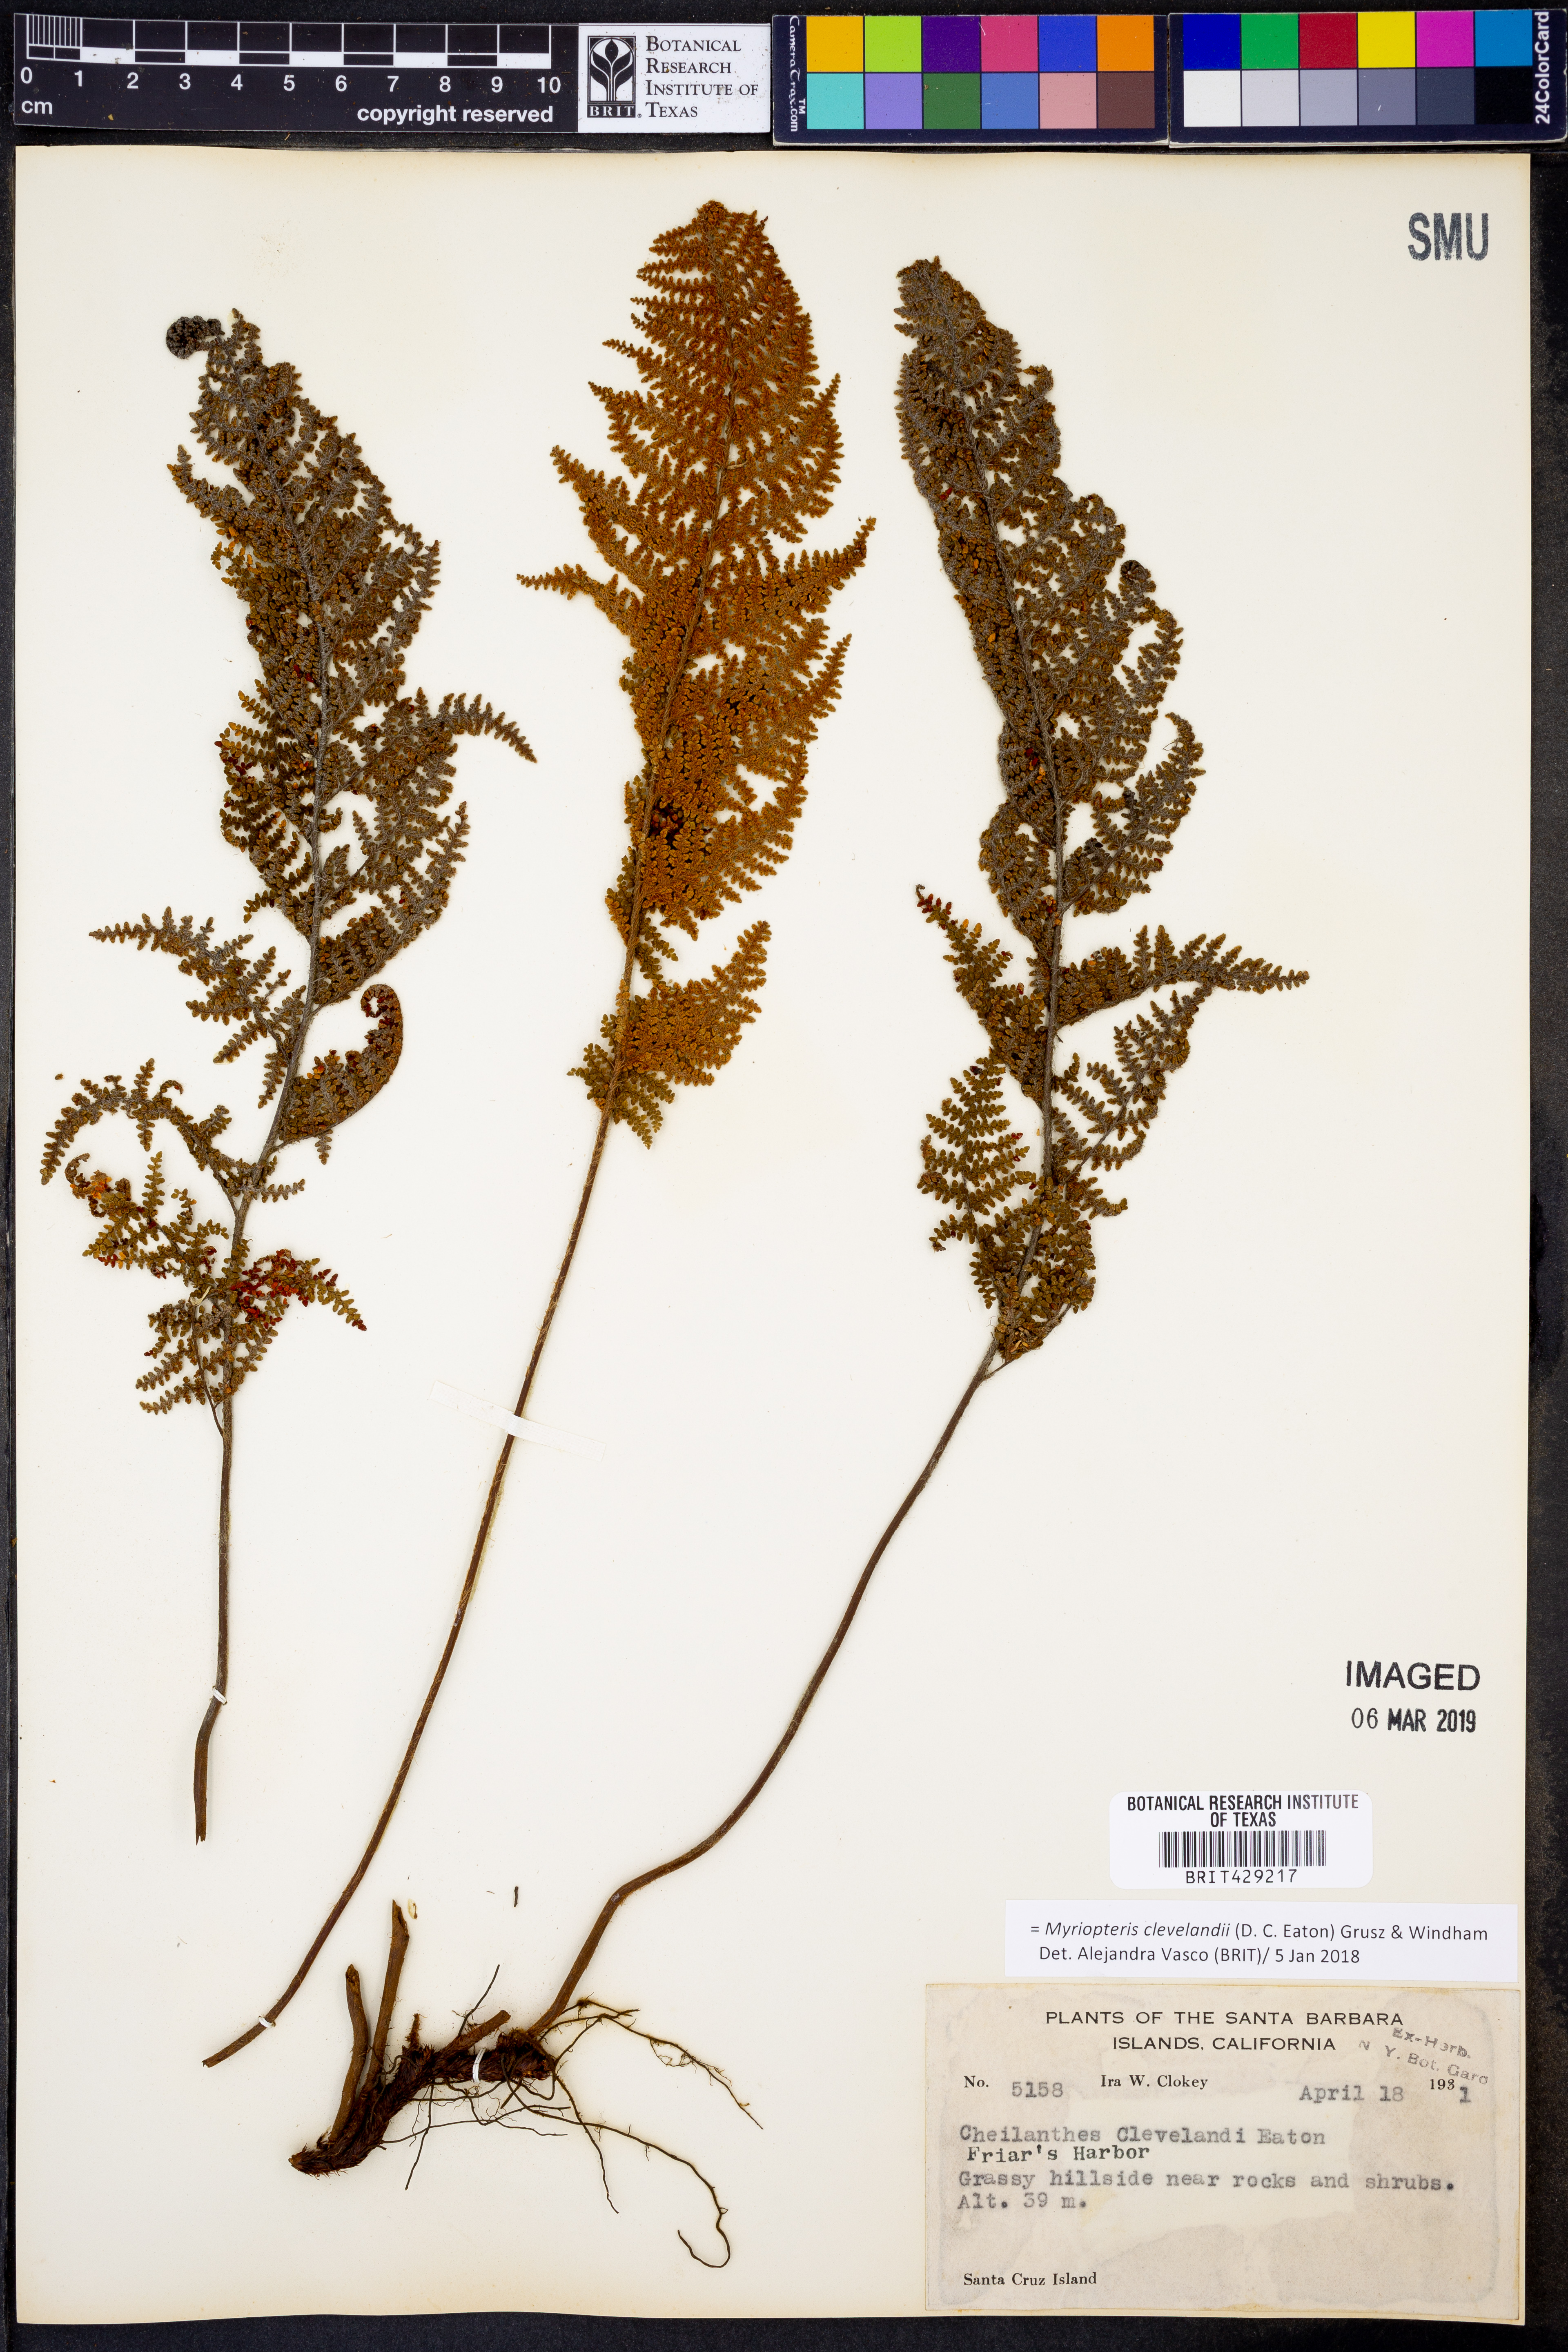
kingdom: Plantae
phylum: Tracheophyta
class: Polypodiopsida
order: Polypodiales
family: Pteridaceae
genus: Myriopteris
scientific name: Myriopteris clevelandii
